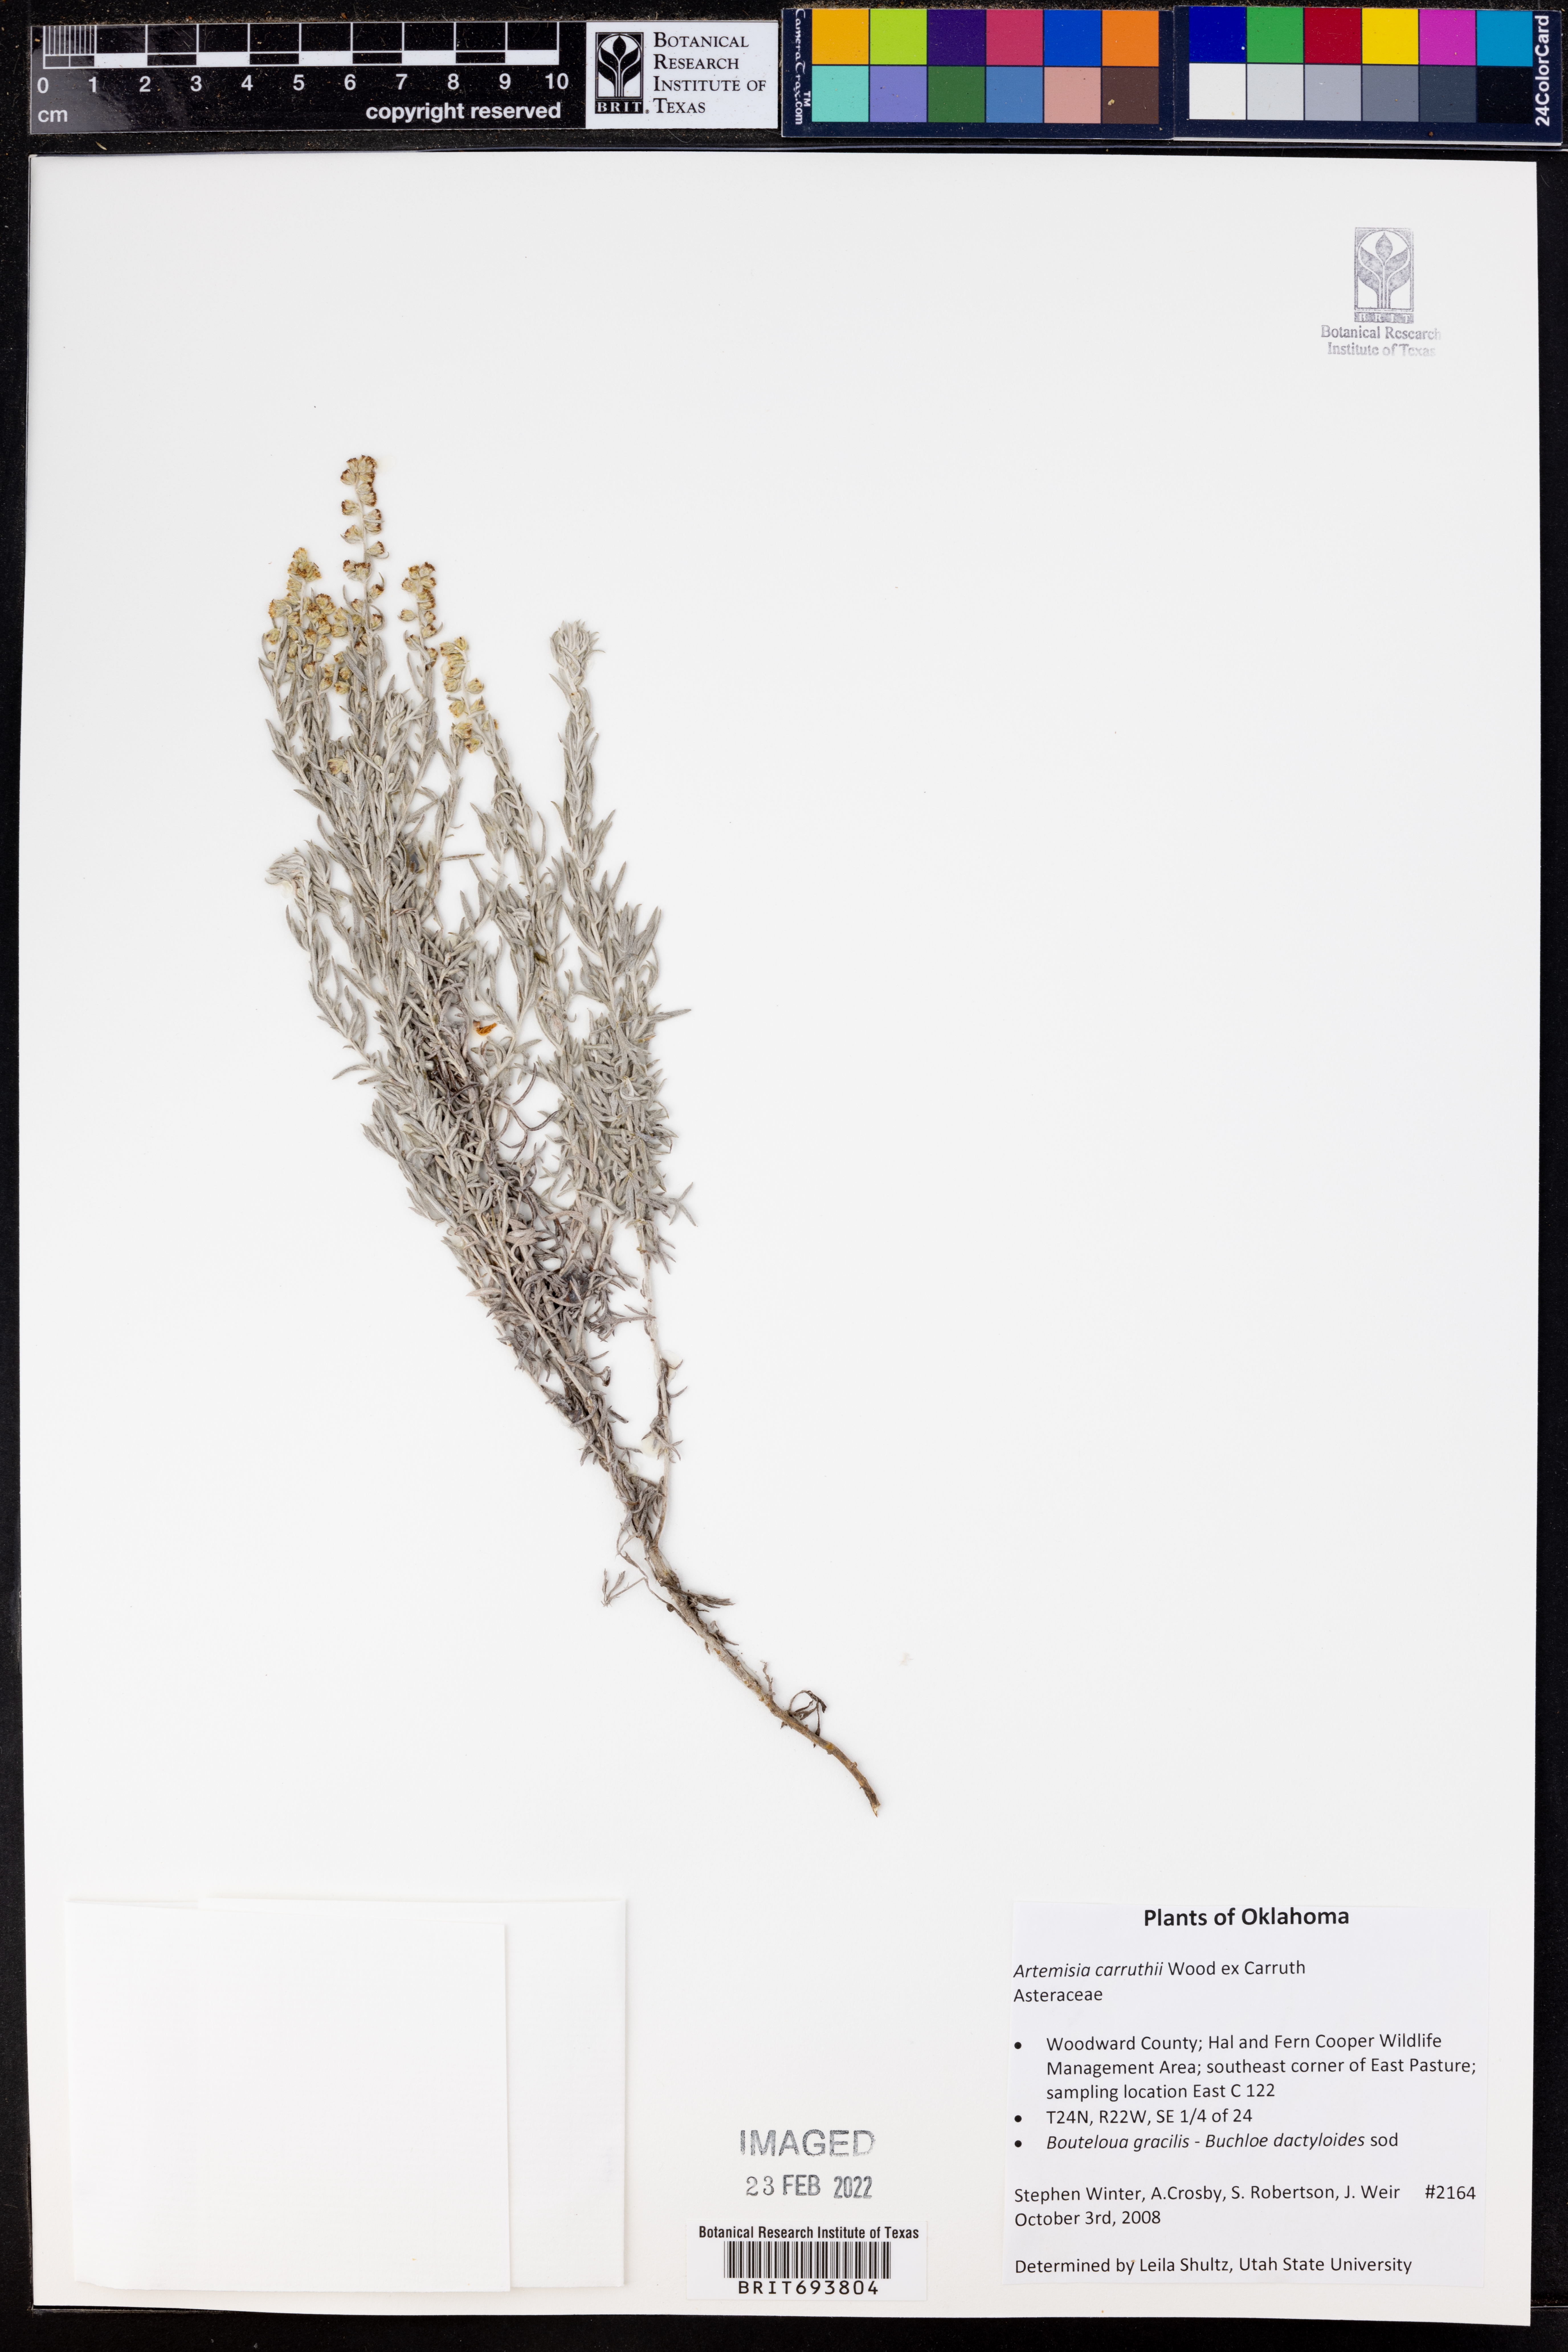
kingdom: Plantae
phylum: Tracheophyta
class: Magnoliopsida
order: Asterales
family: Asteraceae
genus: Artemisia
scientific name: Artemisia carruthii
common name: Carruth wormwood
